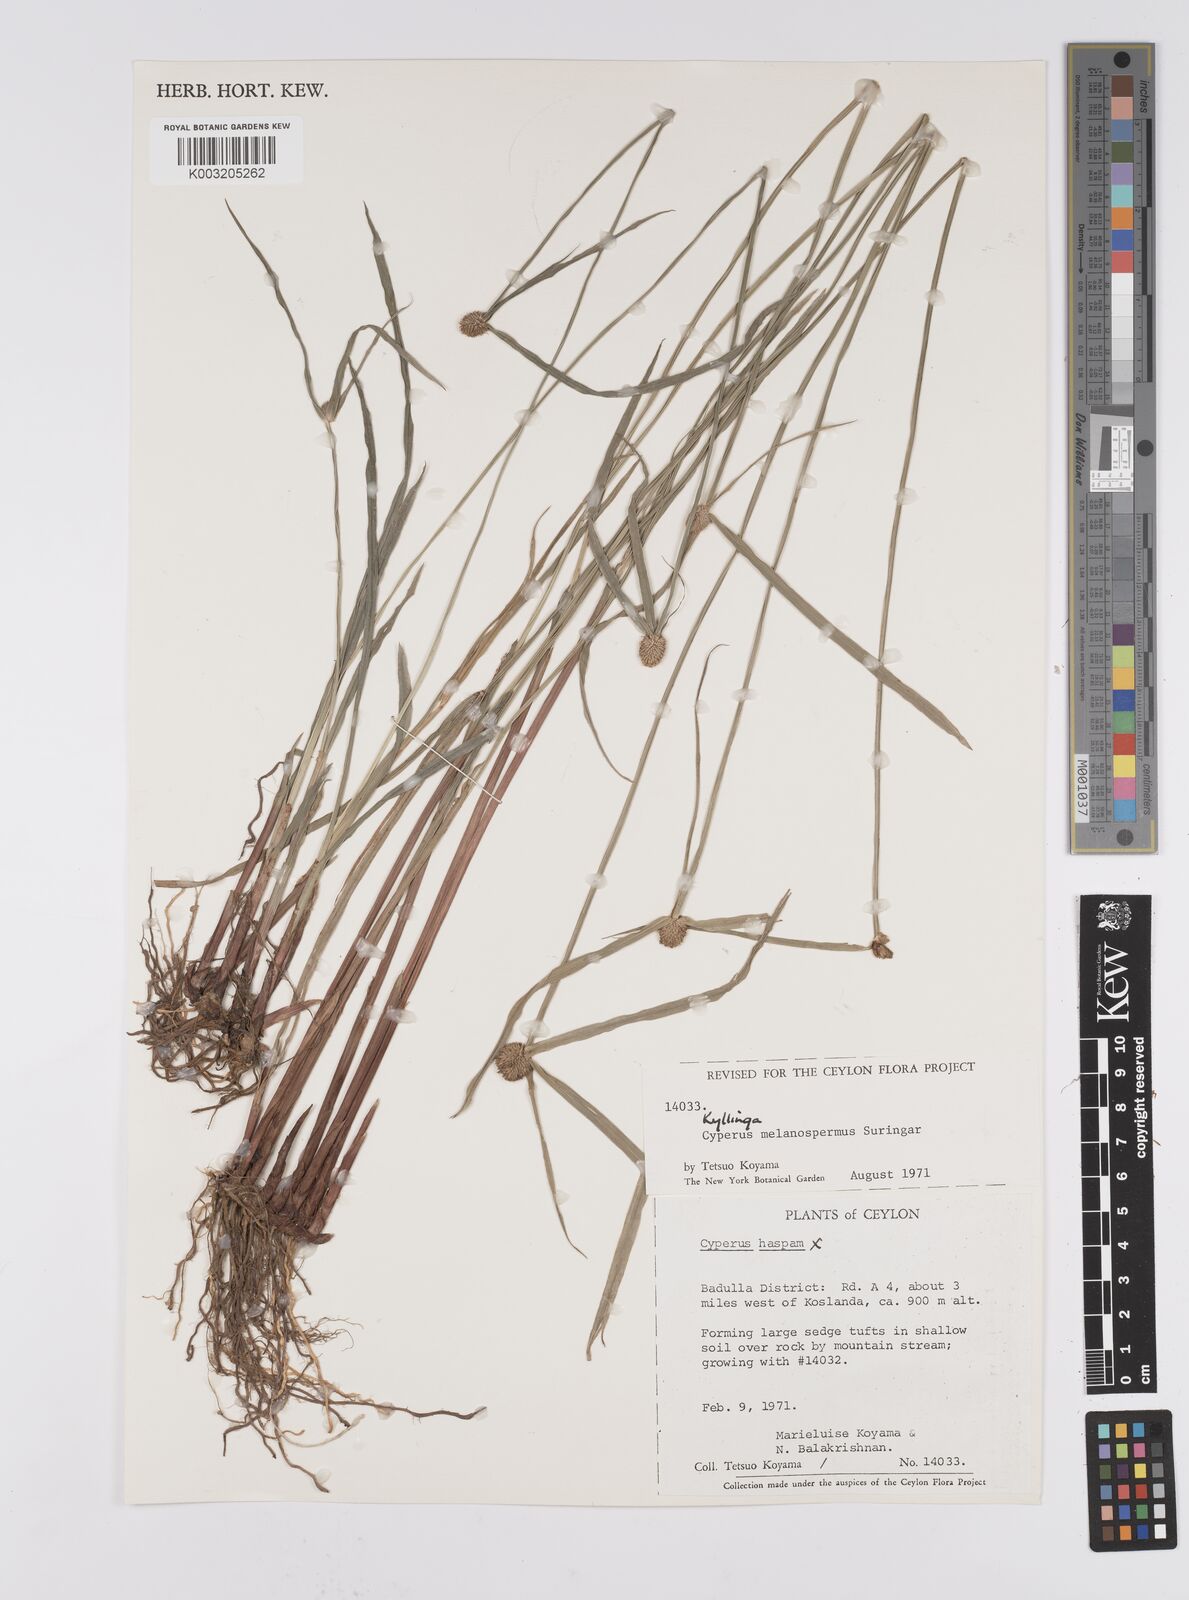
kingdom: Plantae
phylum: Tracheophyta
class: Liliopsida
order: Poales
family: Cyperaceae
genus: Cyperus
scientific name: Cyperus melanospermus
